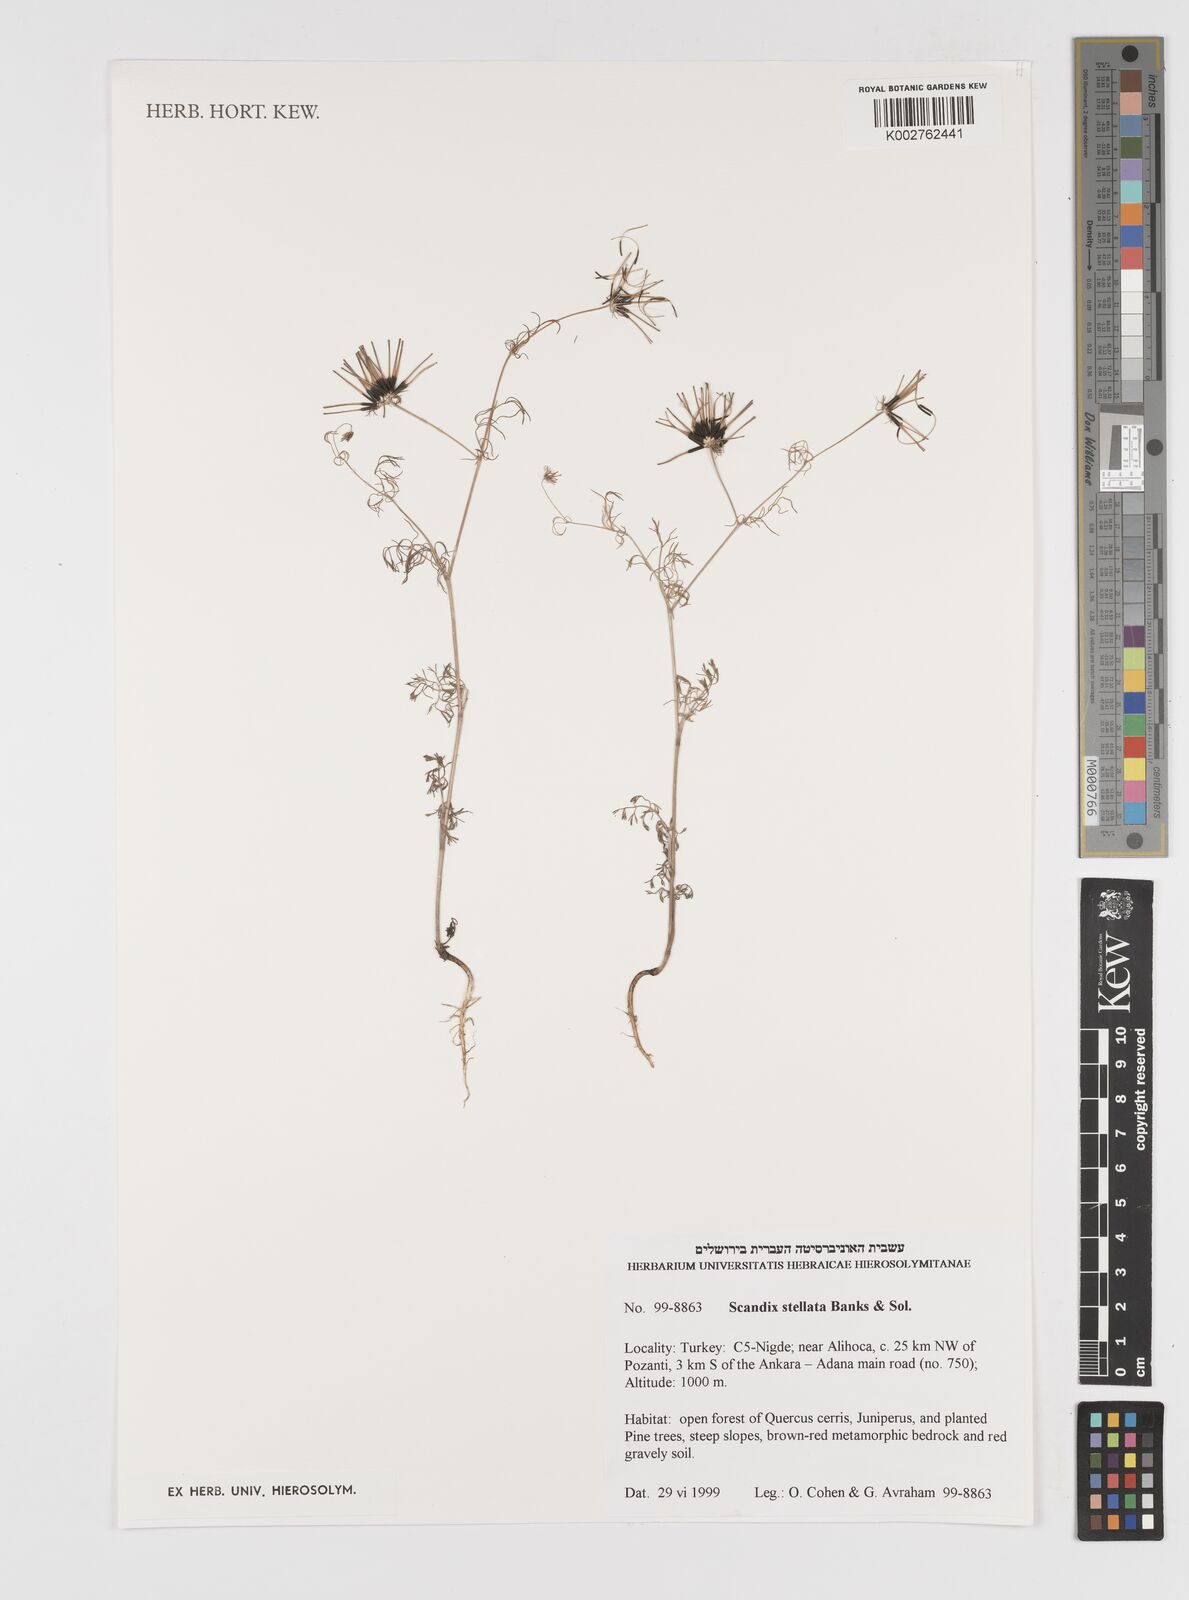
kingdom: Plantae
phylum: Tracheophyta
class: Magnoliopsida
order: Apiales
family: Apiaceae
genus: Scandix
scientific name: Scandix stellata
